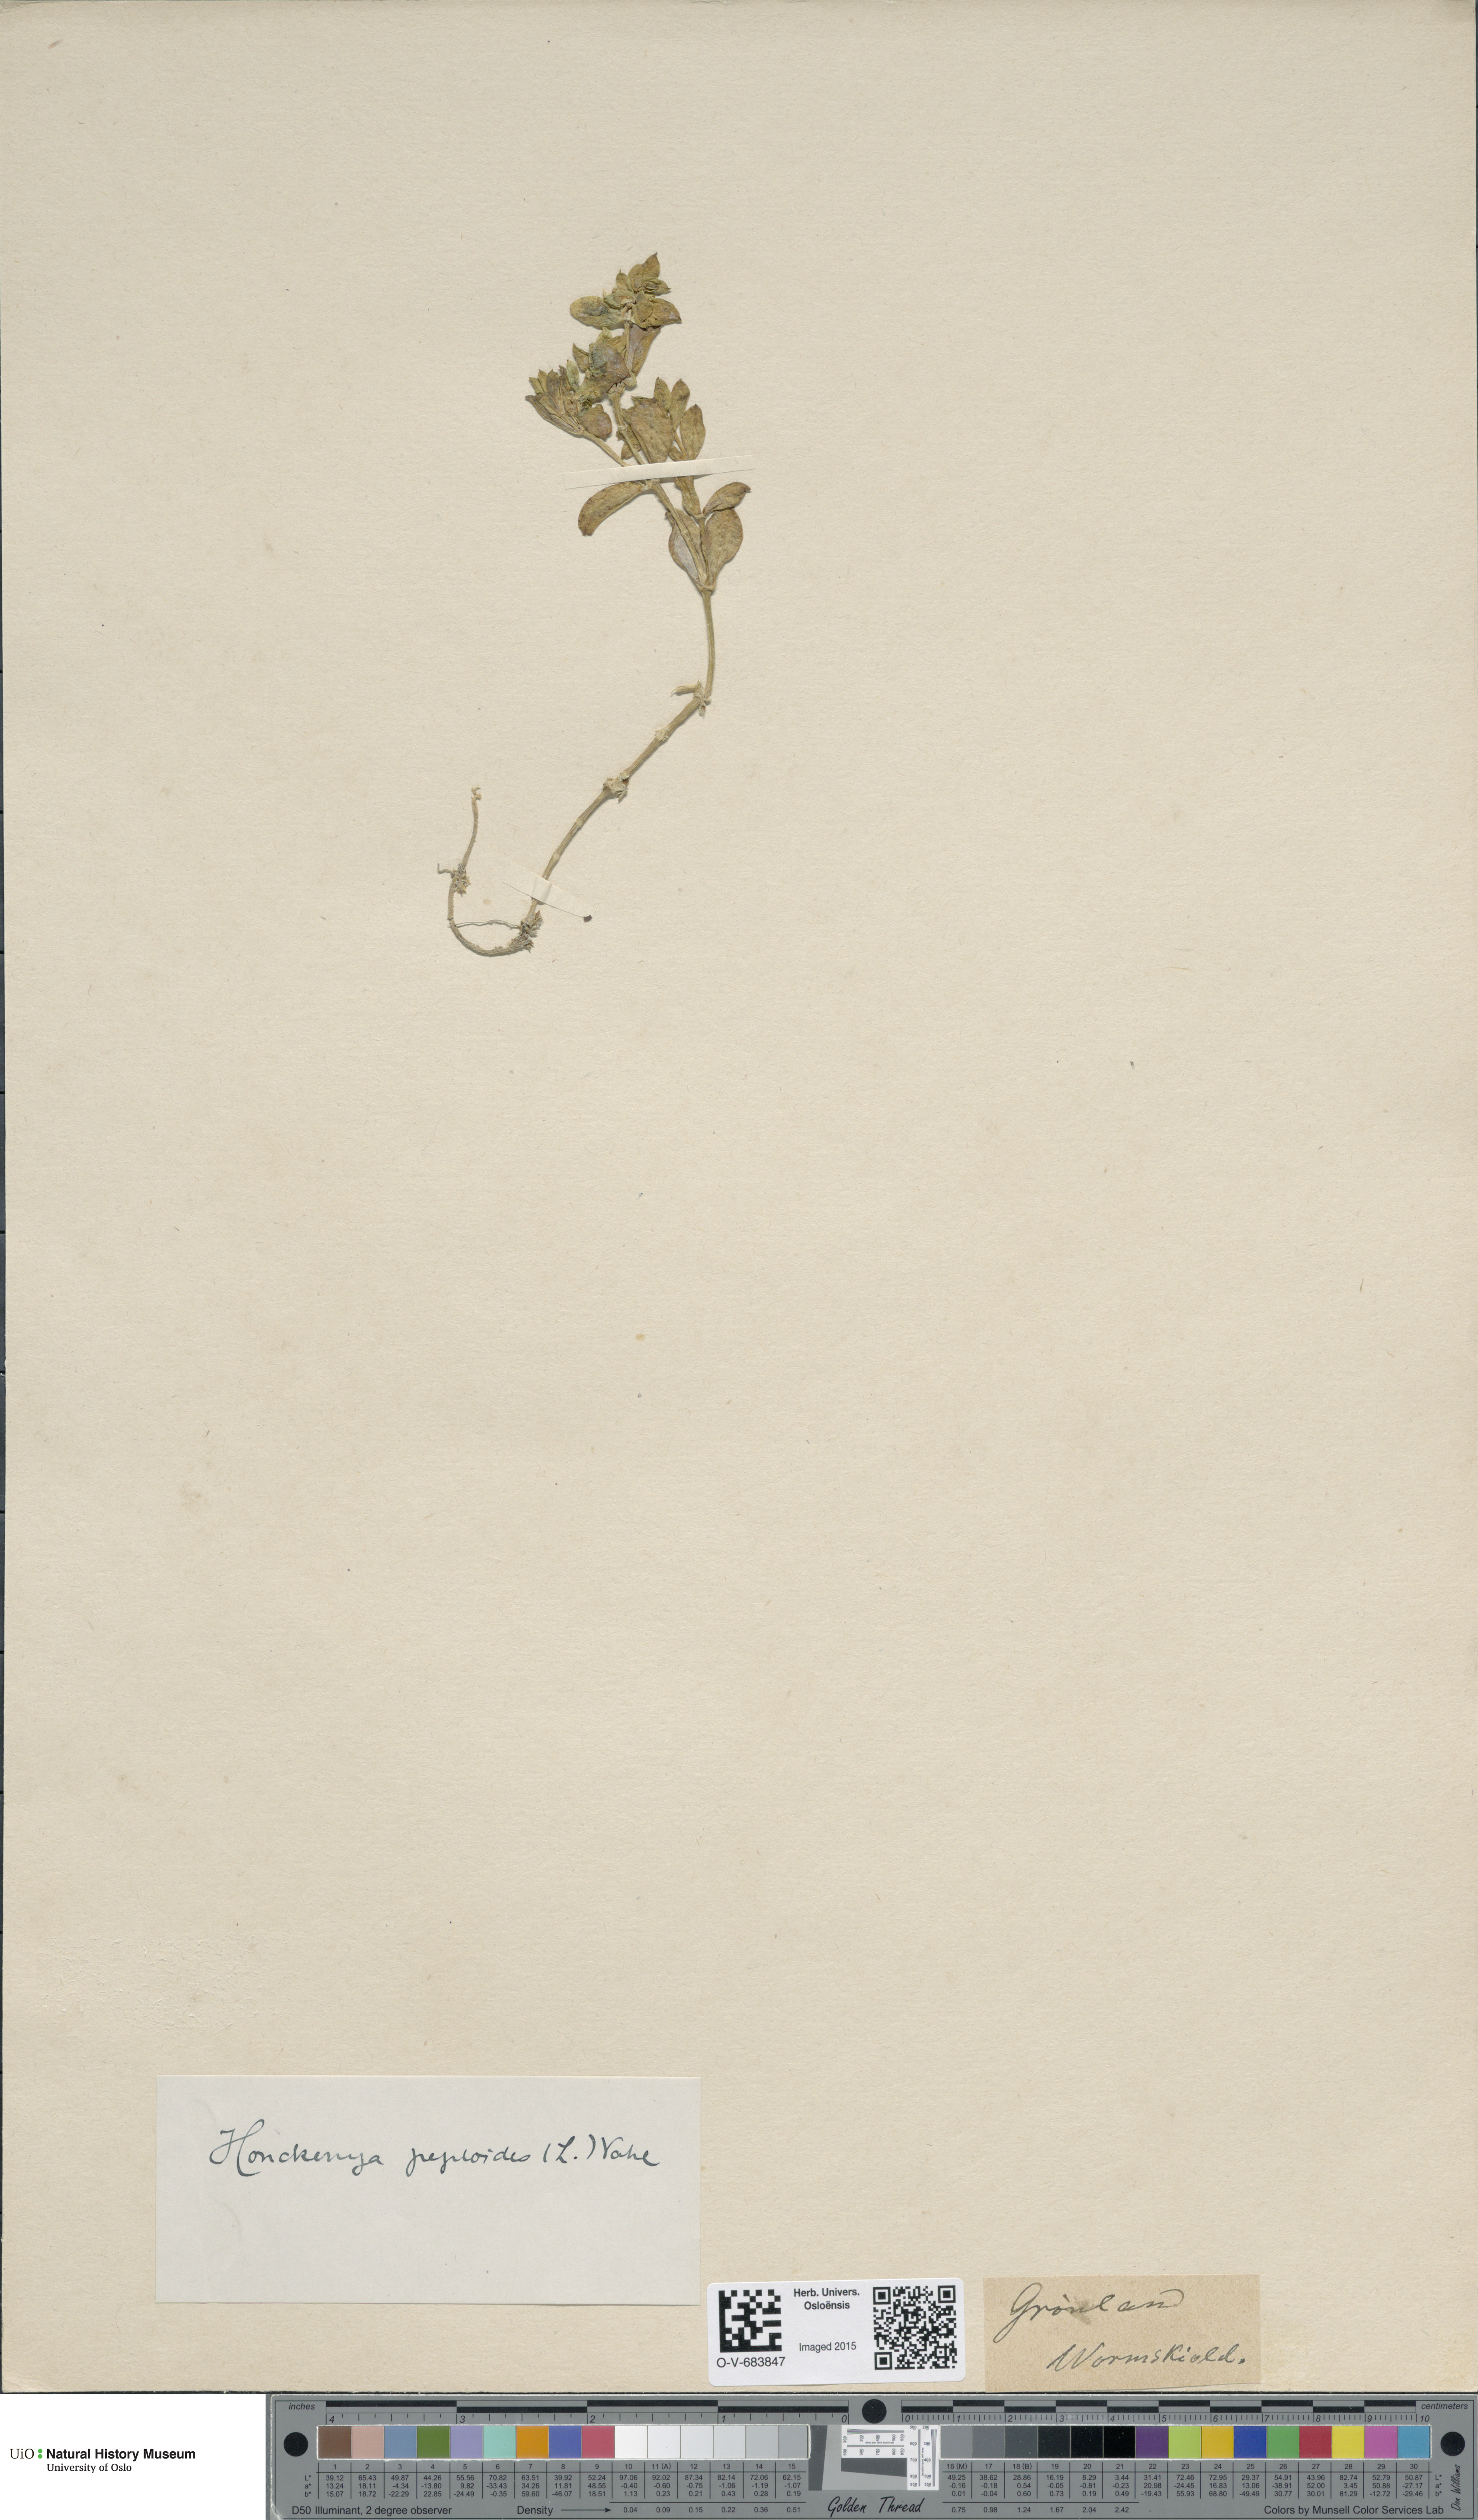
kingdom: Plantae
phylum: Tracheophyta
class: Magnoliopsida
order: Caryophyllales
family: Caryophyllaceae
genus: Honckenya
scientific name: Honckenya peploides
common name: Sea sandwort
